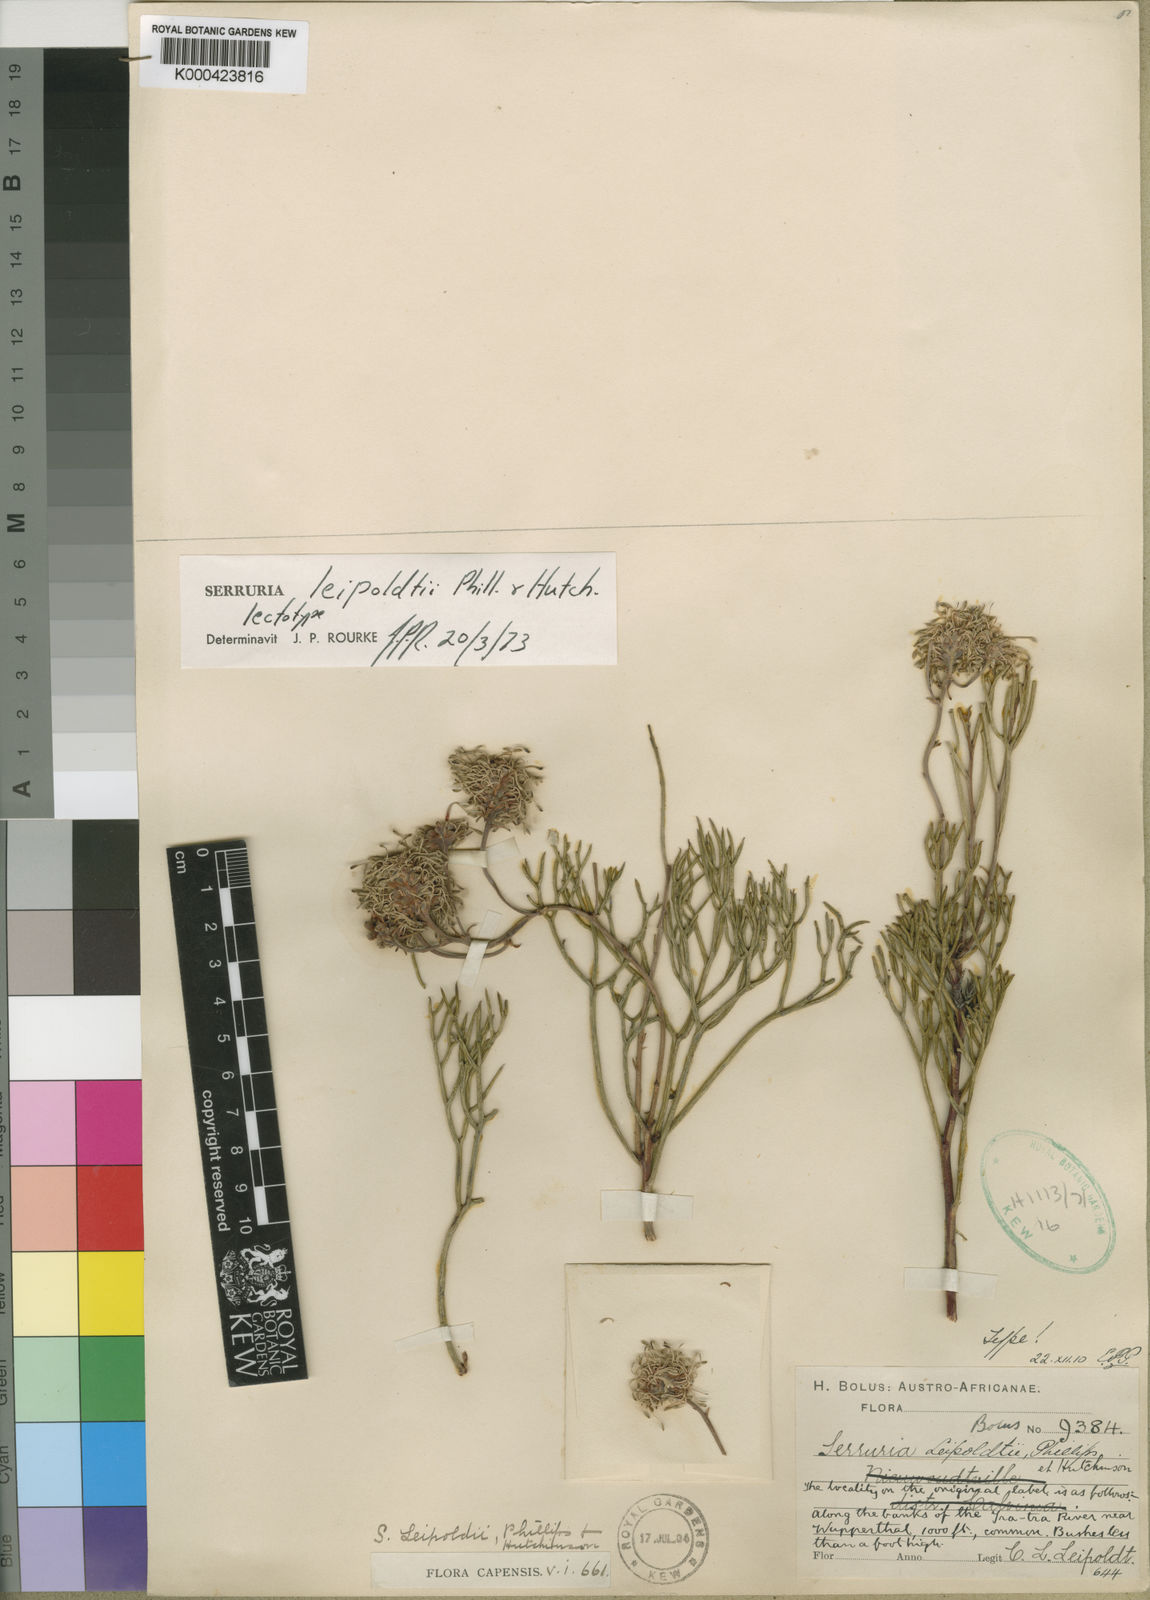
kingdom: Plantae
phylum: Tracheophyta
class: Magnoliopsida
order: Proteales
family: Proteaceae
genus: Serruria
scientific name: Serruria leipoldtii
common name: Leipoldt's spiderhead
